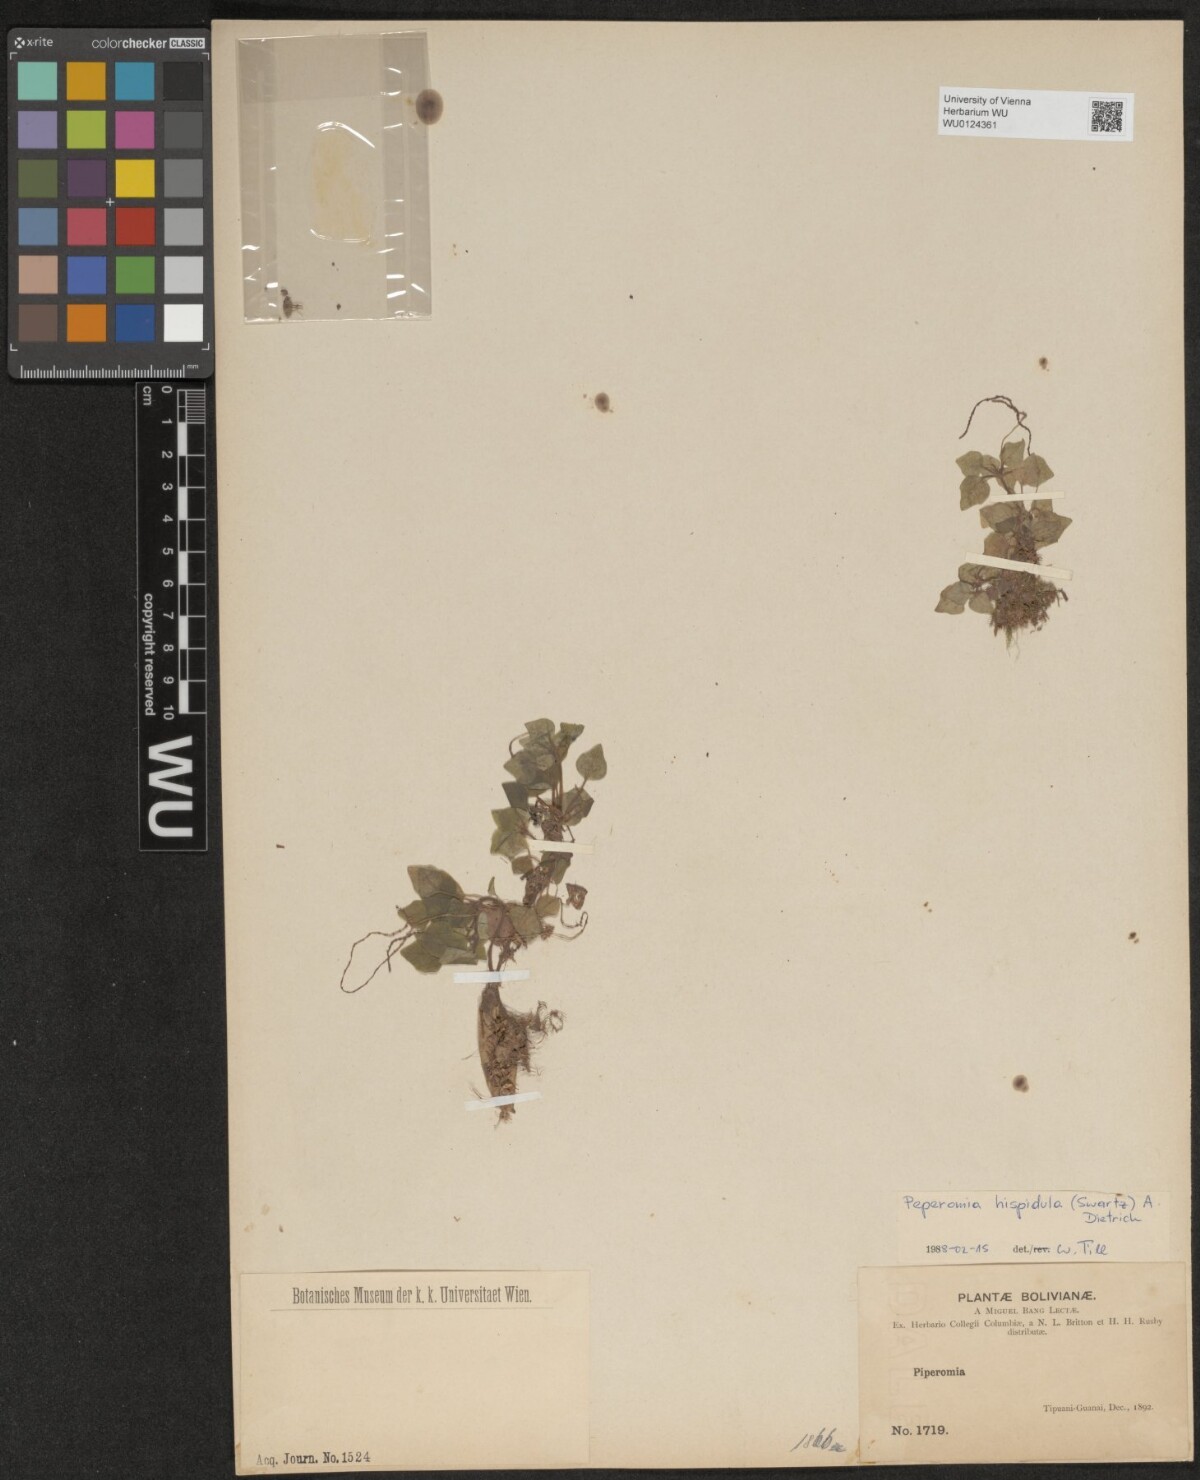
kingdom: Plantae
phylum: Tracheophyta
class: Magnoliopsida
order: Piperales
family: Piperaceae
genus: Peperomia
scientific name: Peperomia hispidula
